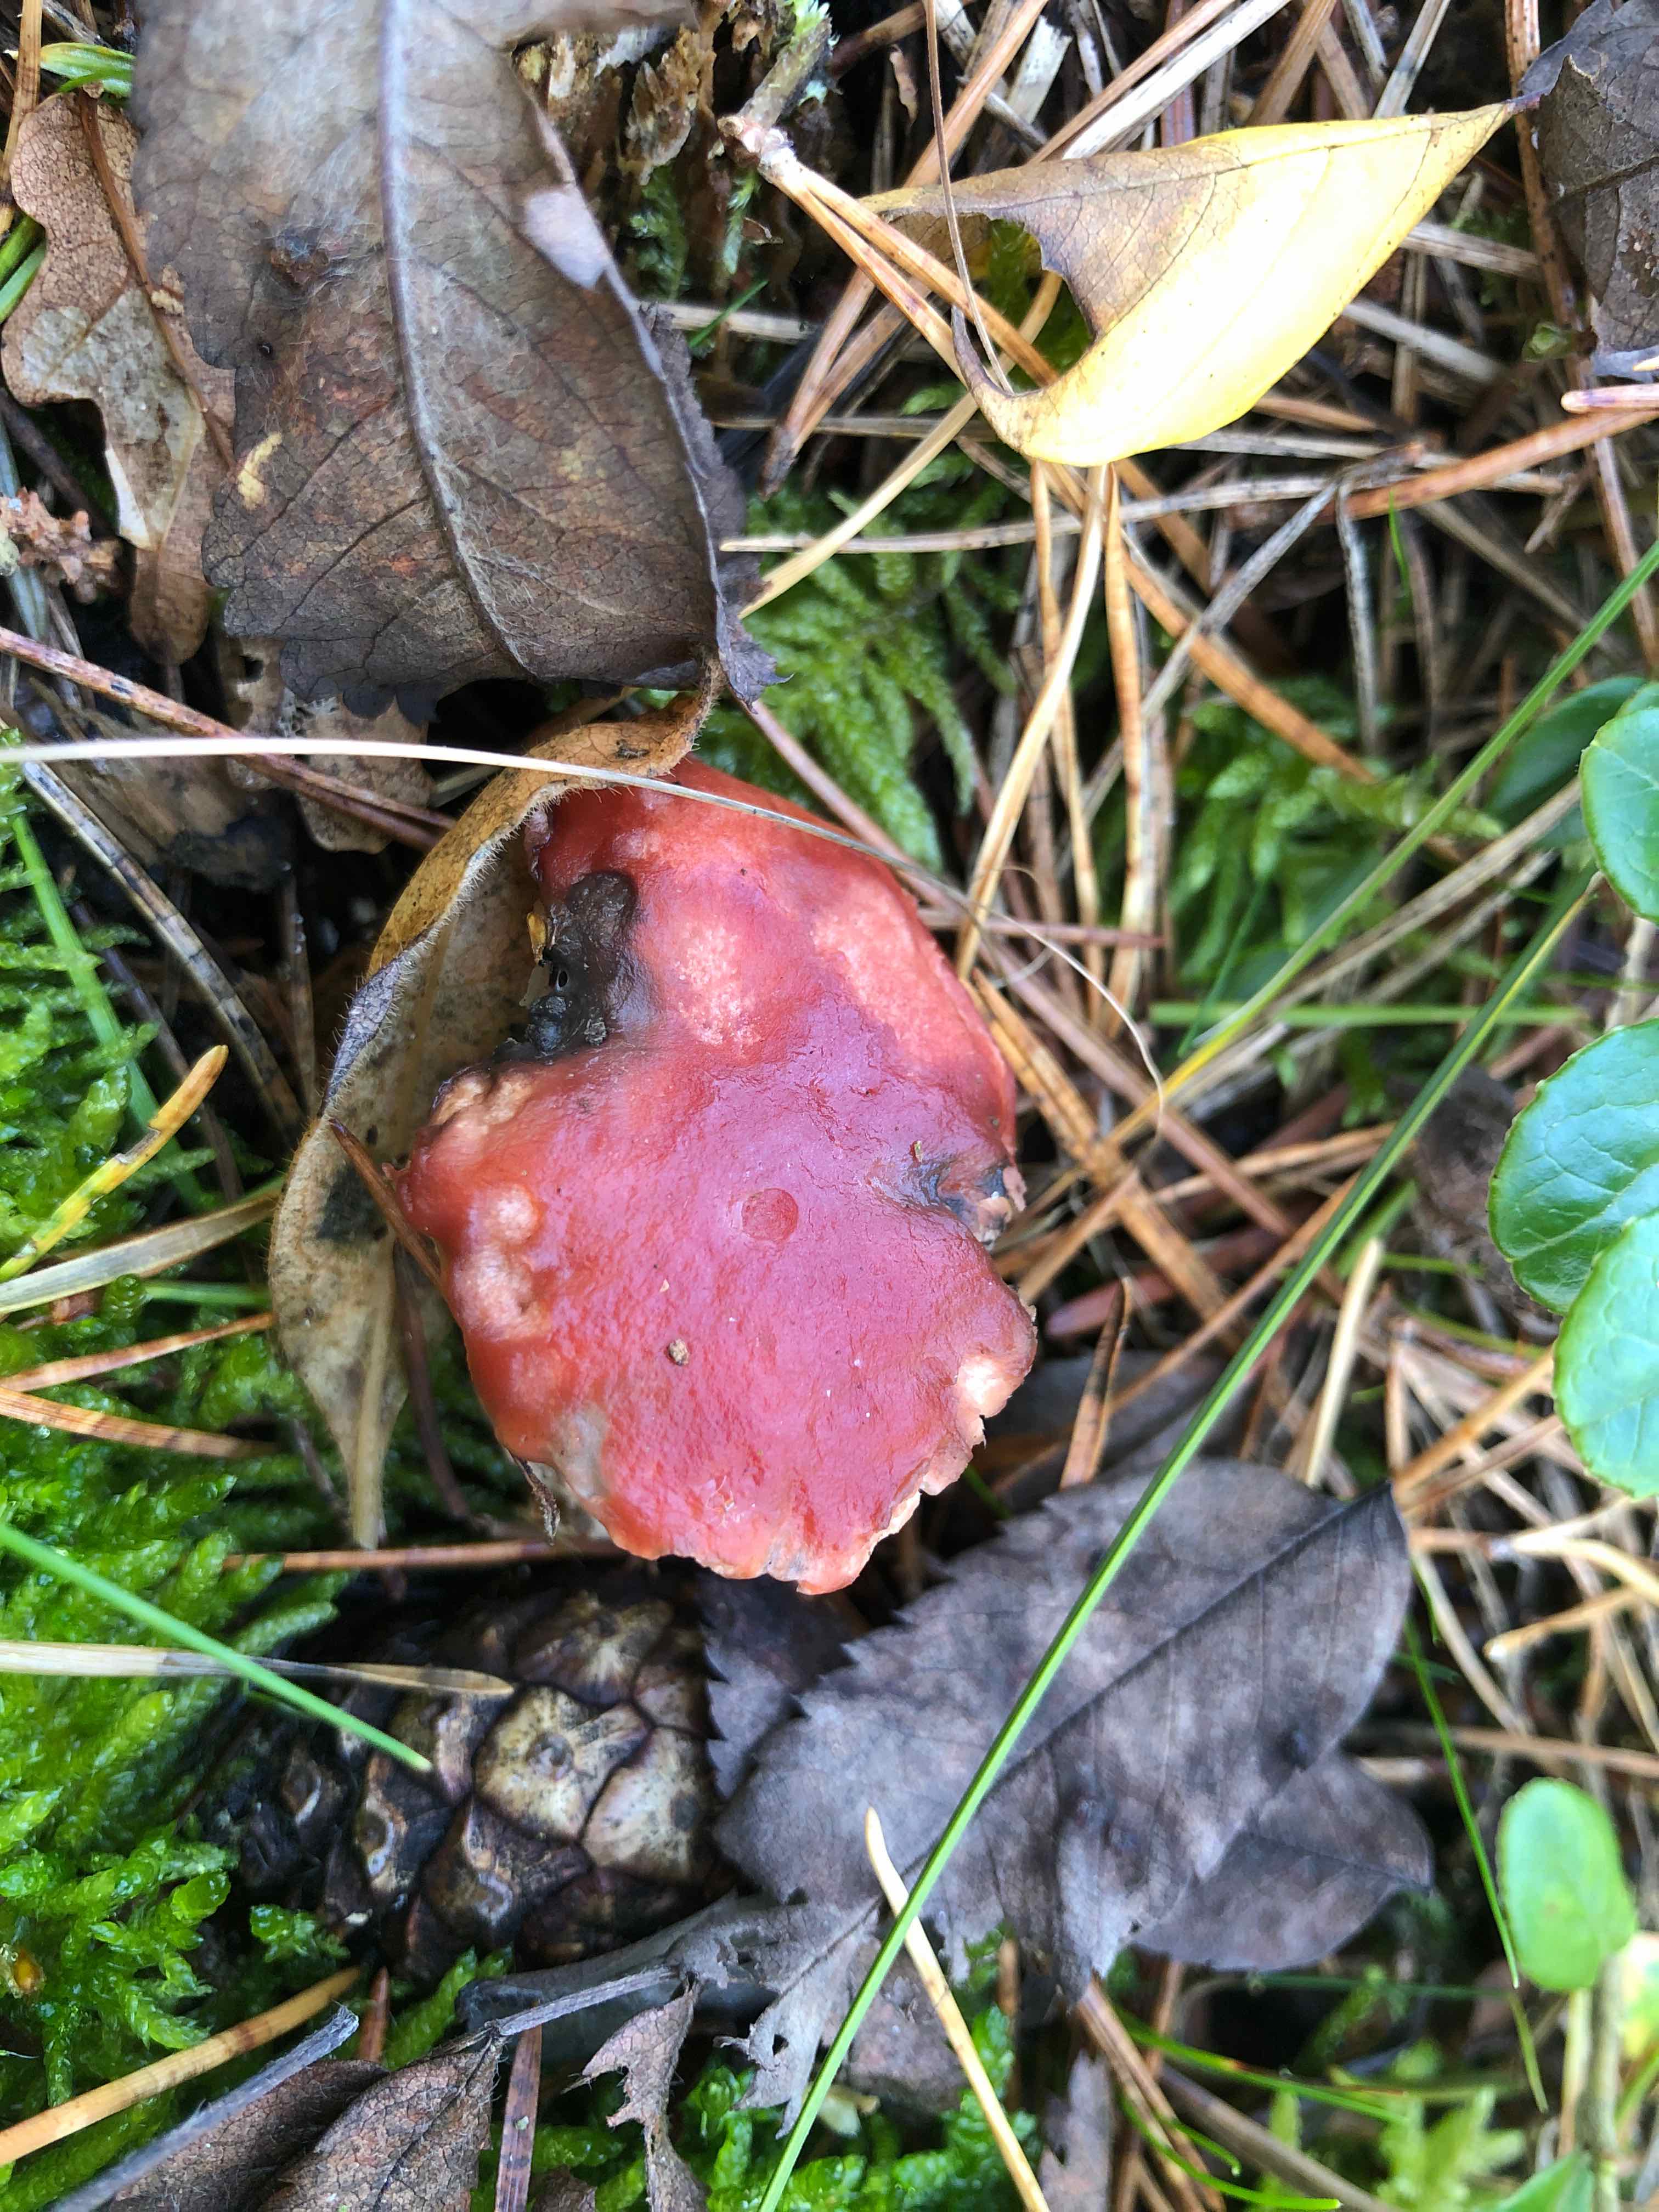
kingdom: Fungi
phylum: Basidiomycota
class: Agaricomycetes
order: Boletales
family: Gomphidiaceae
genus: Gomphidius
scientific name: Gomphidius roseus
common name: rosenrød slimslør
